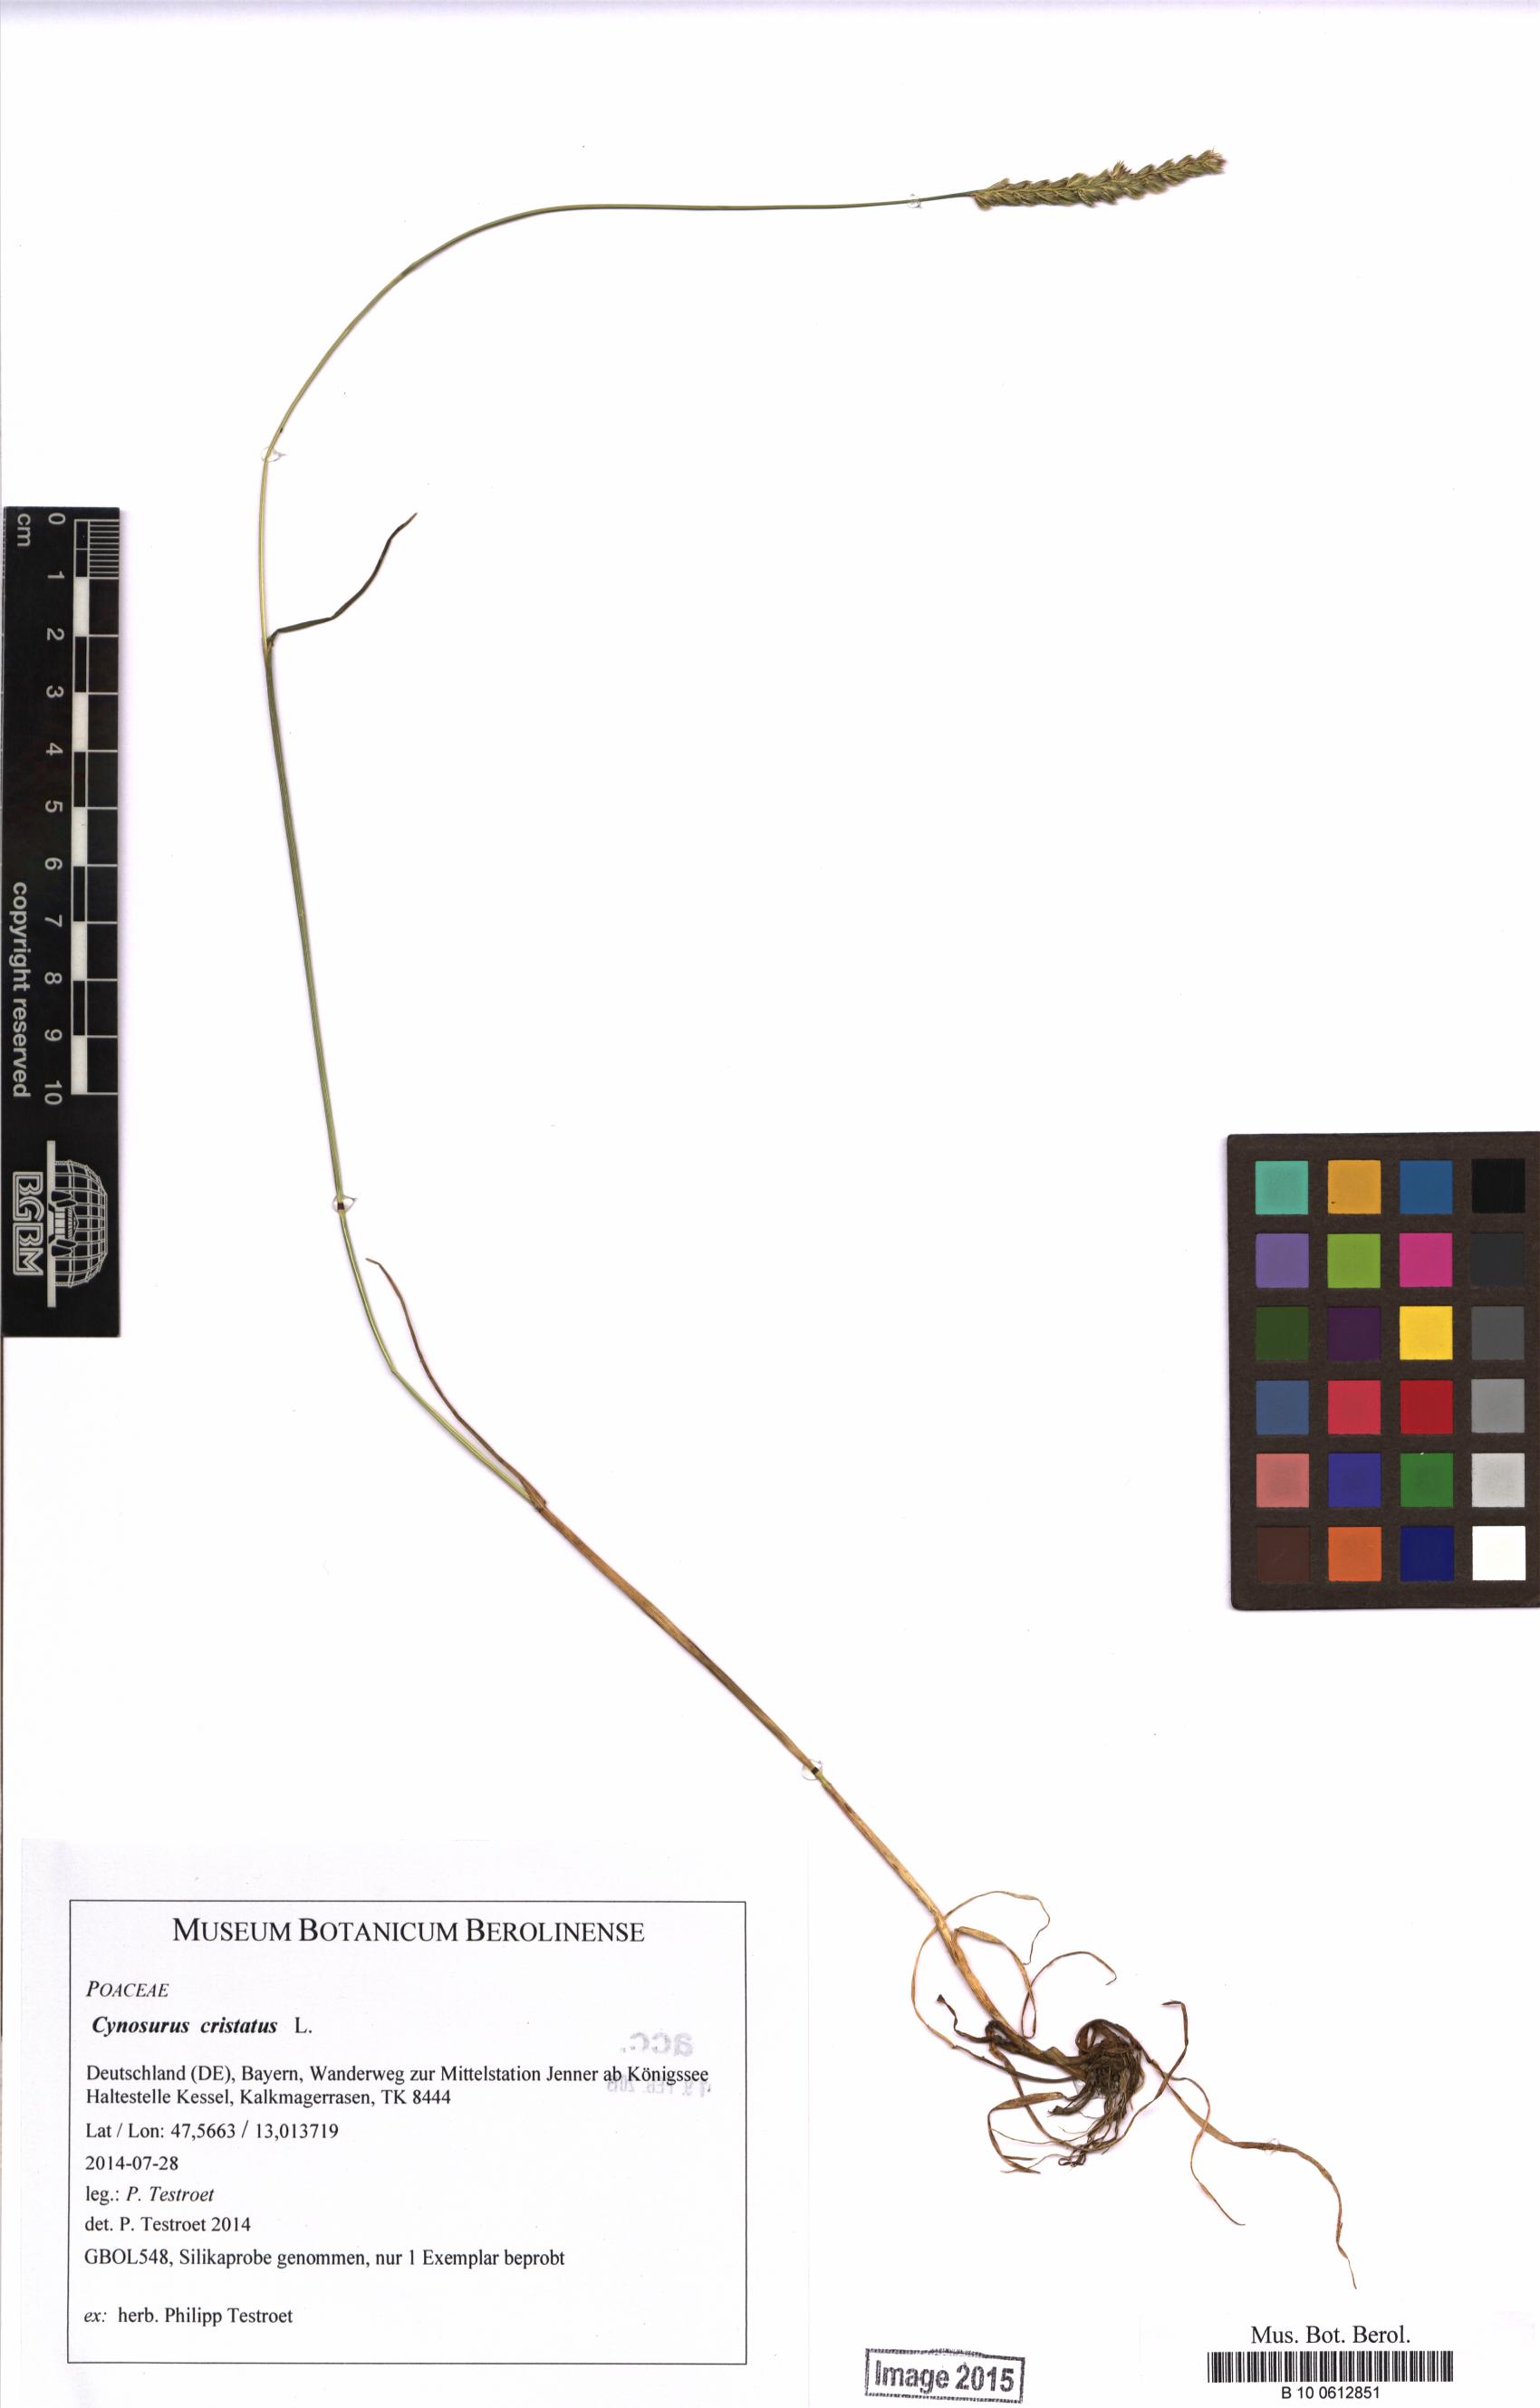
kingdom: Plantae
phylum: Tracheophyta
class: Liliopsida
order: Poales
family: Poaceae
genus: Cynosurus
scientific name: Cynosurus cristatus
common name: Crested dog's-tail
